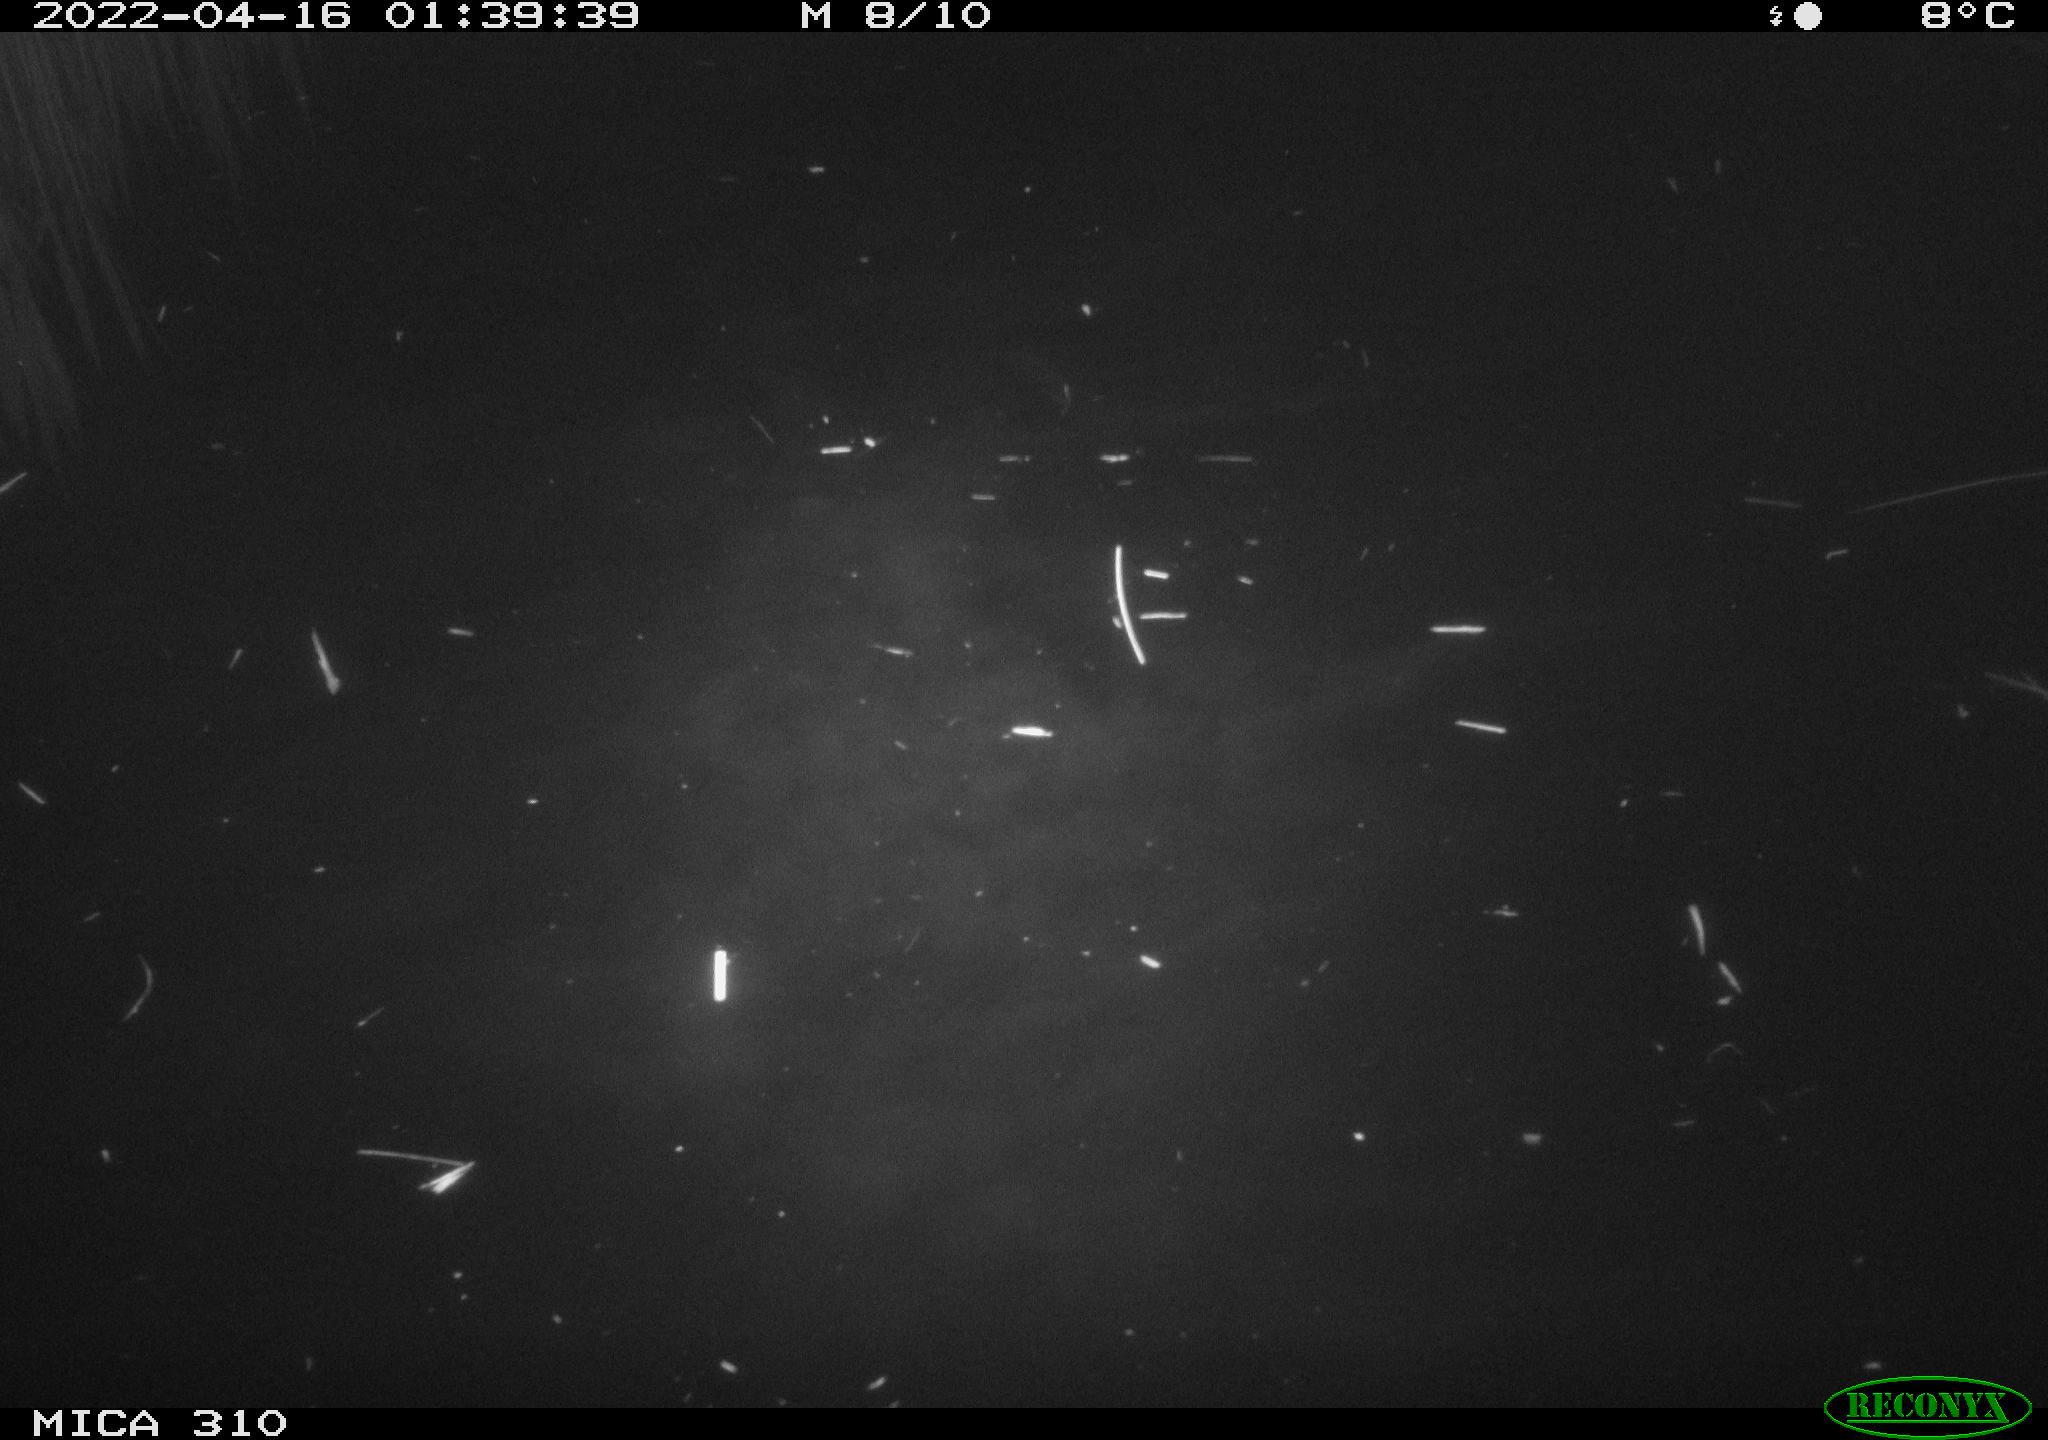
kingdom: Animalia
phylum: Chordata
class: Aves
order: Anseriformes
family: Anatidae
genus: Anas
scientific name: Anas platyrhynchos
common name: Mallard
